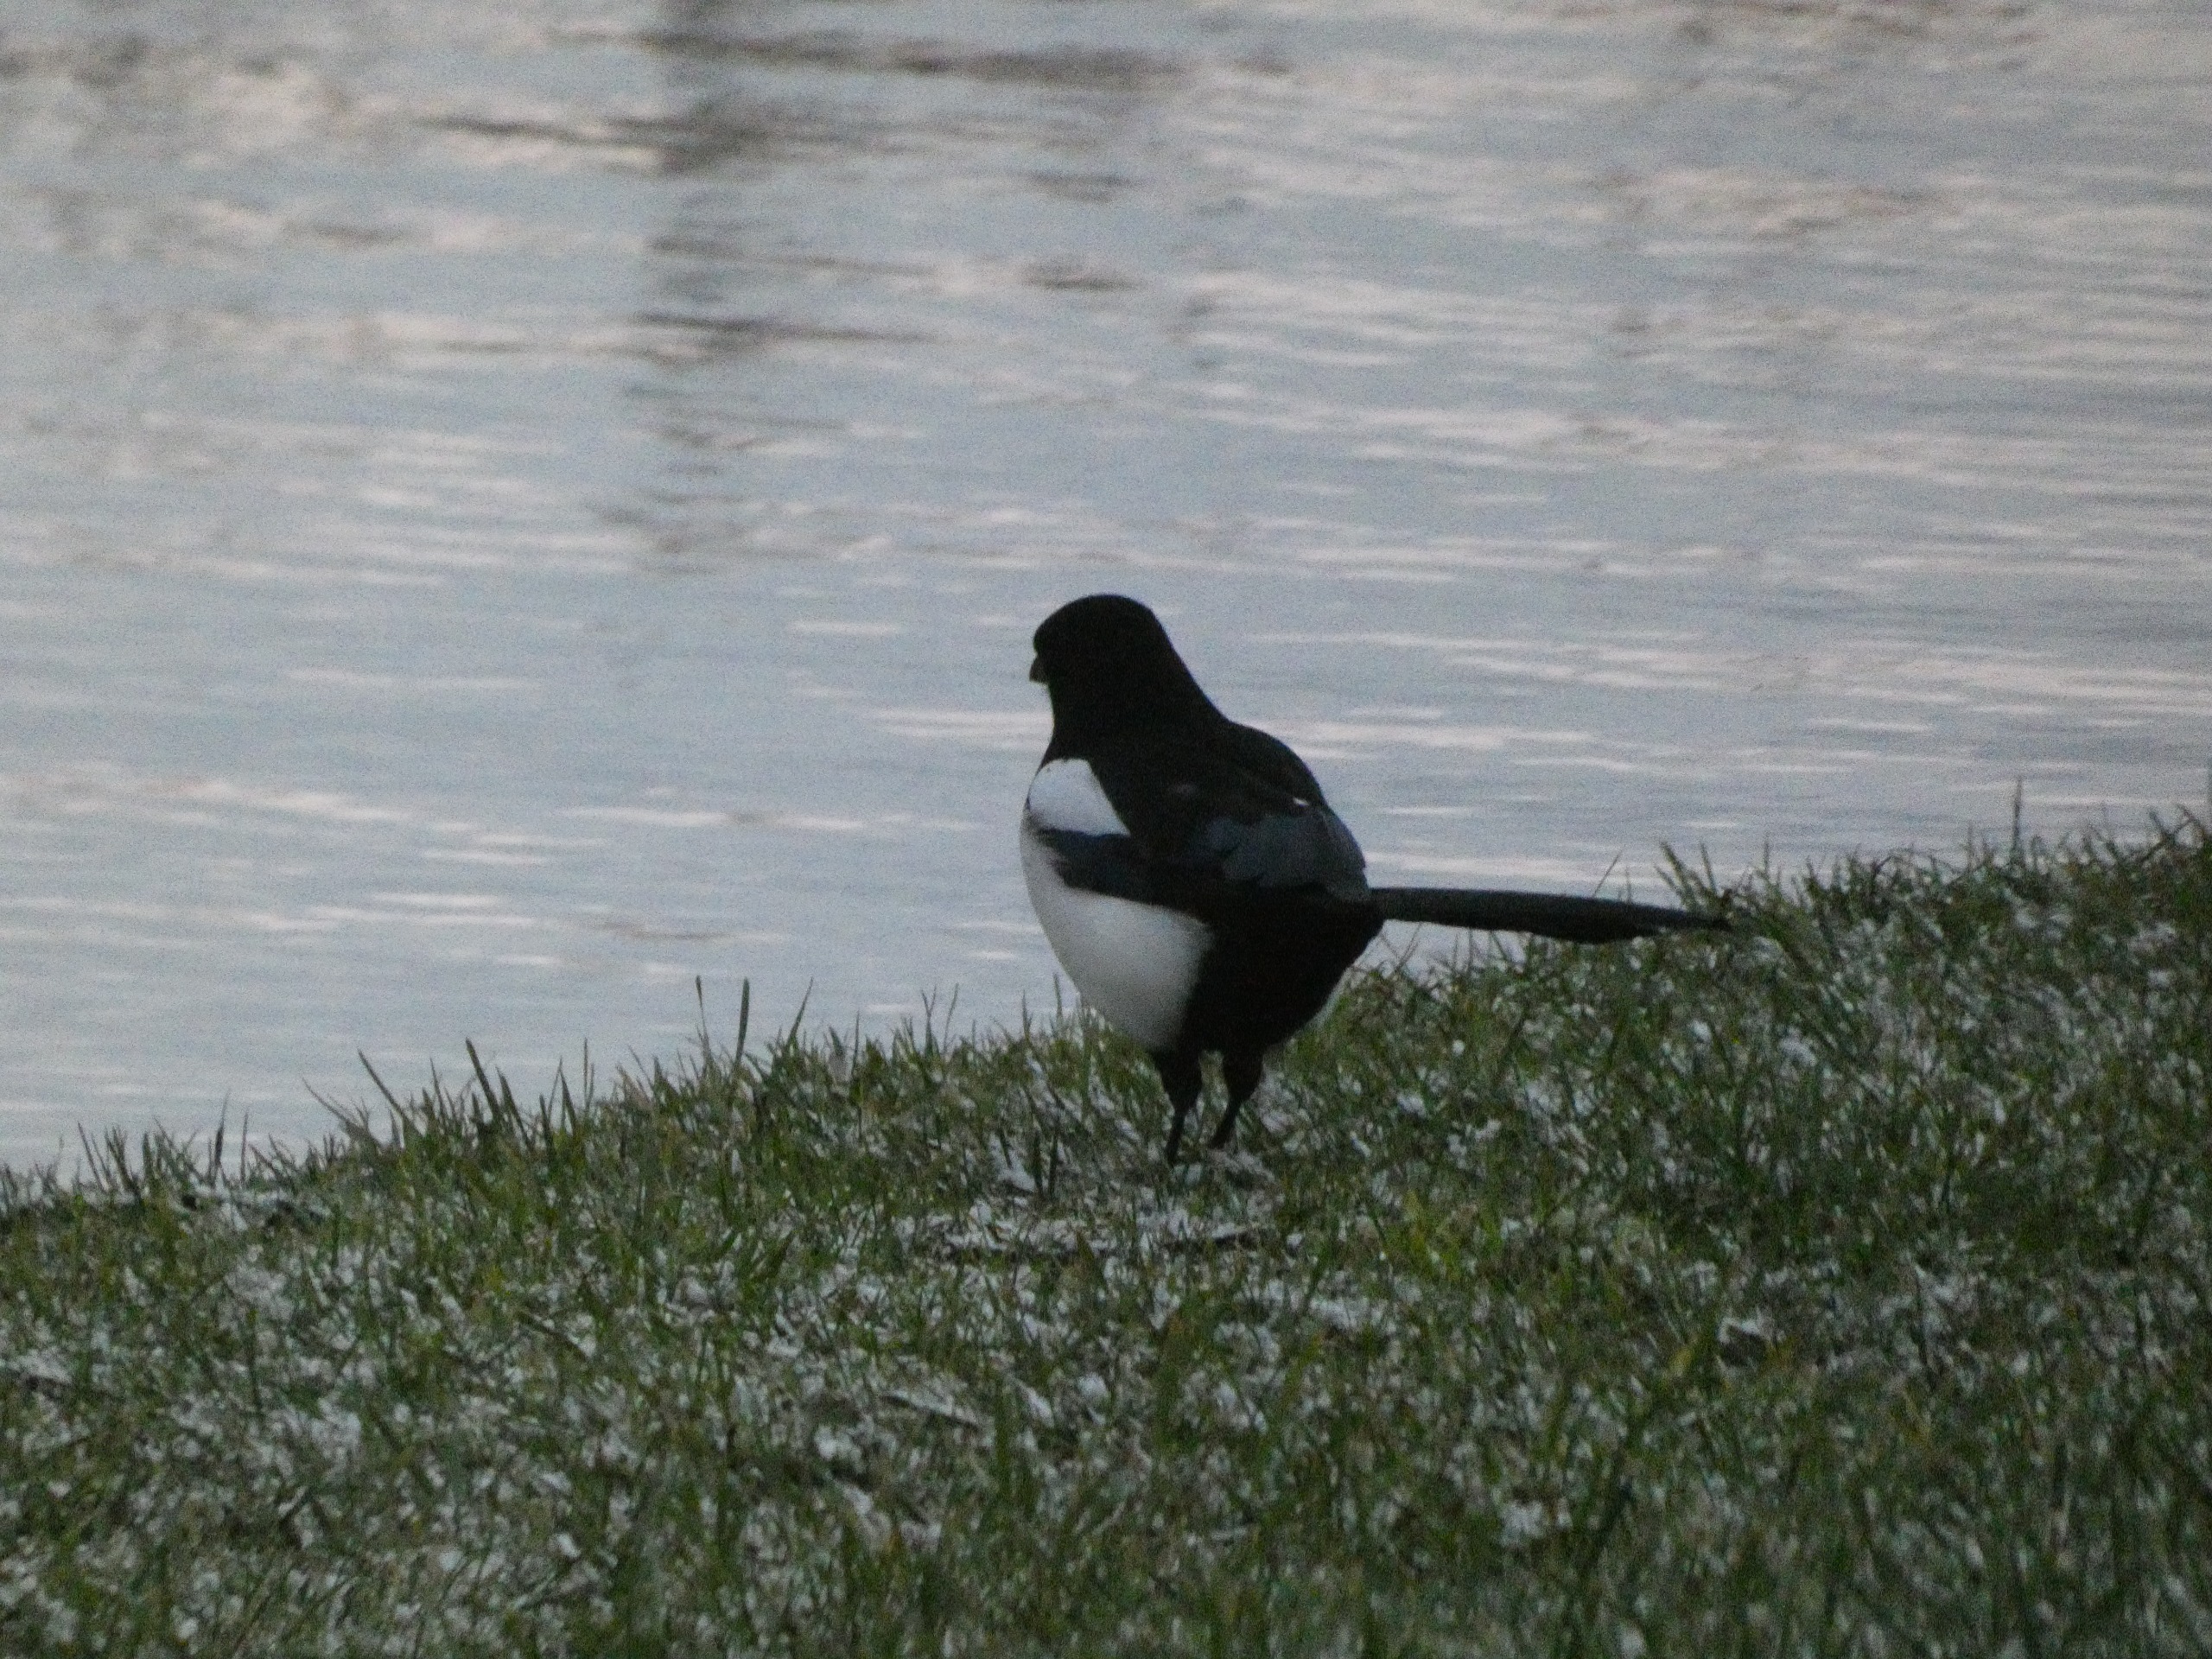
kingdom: Animalia
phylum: Chordata
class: Aves
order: Passeriformes
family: Corvidae
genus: Pica
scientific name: Pica pica
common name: Husskade
